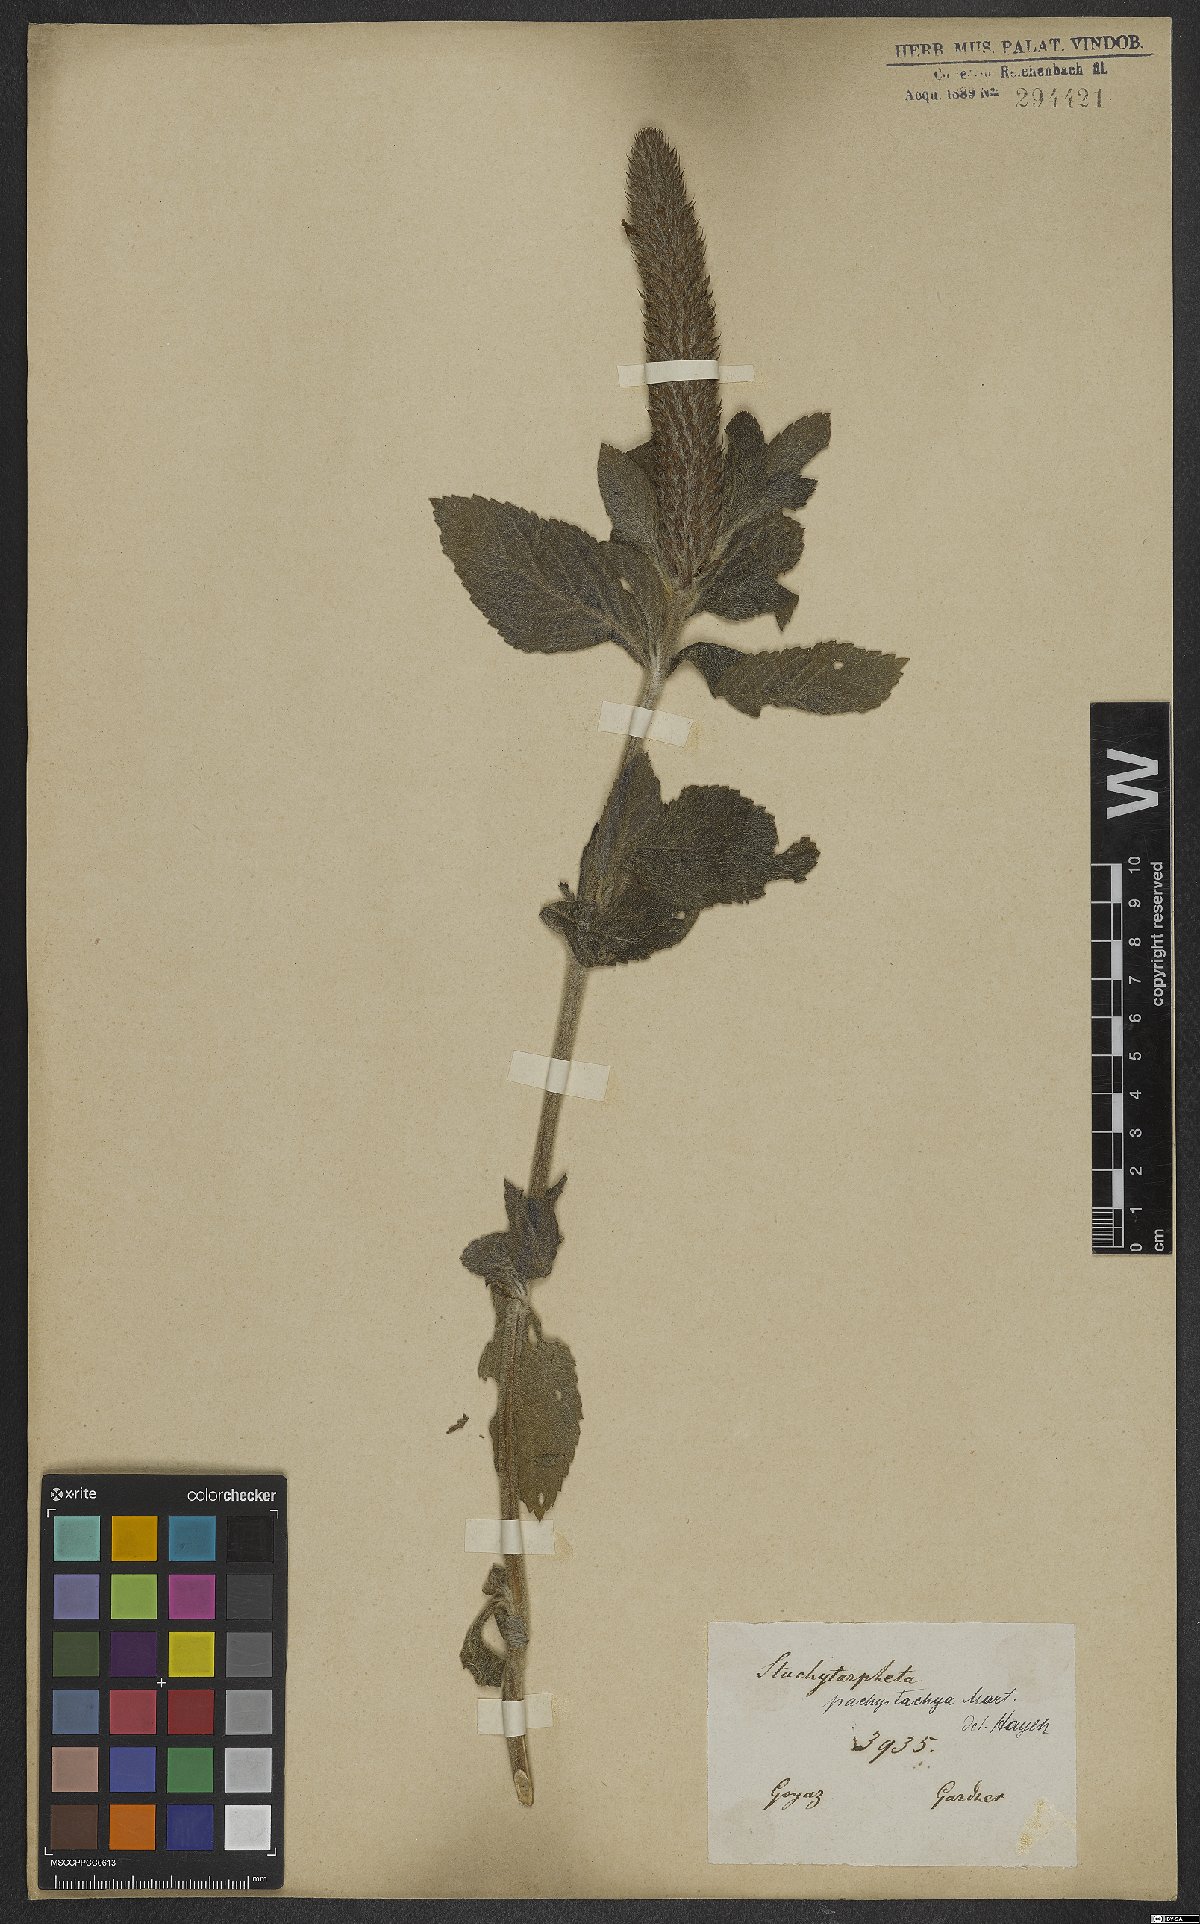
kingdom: Plantae
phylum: Tracheophyta
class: Magnoliopsida
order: Lamiales
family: Verbenaceae
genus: Stachytarpheta
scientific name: Stachytarpheta pachystachya
